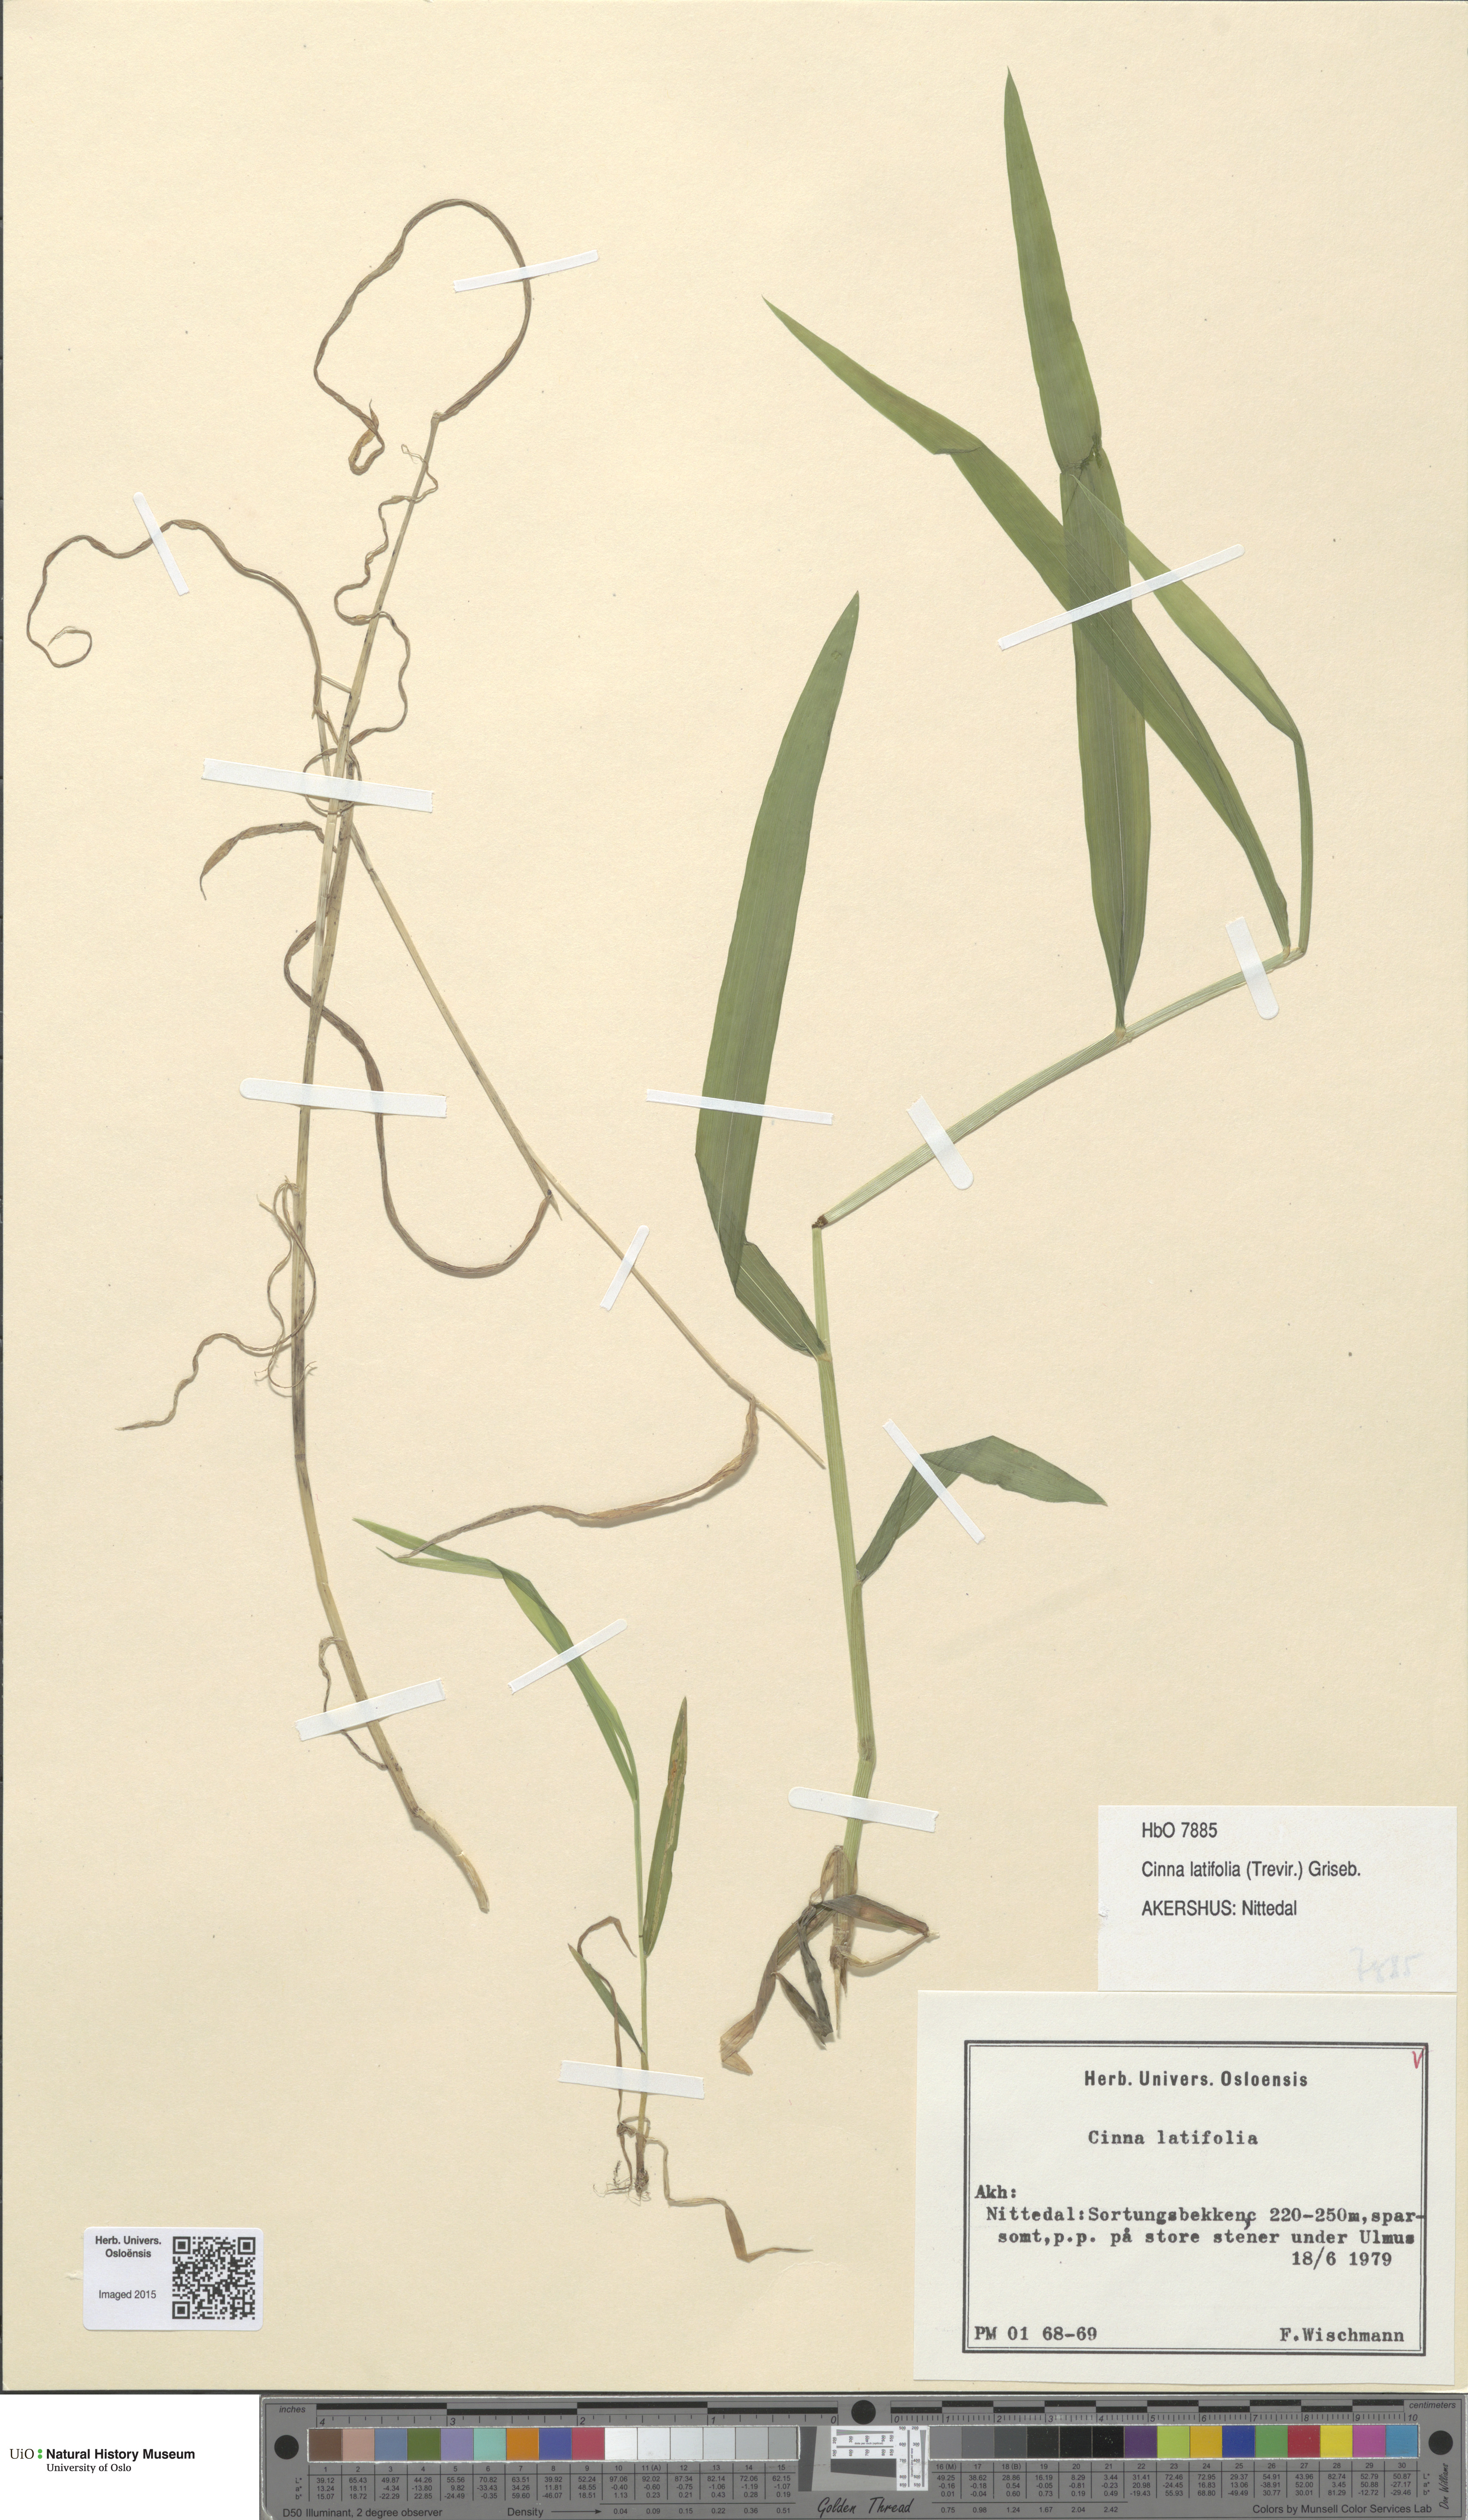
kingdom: Plantae
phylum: Tracheophyta
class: Liliopsida
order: Poales
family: Poaceae
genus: Cinna
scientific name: Cinna latifolia
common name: Drooping woodreed
